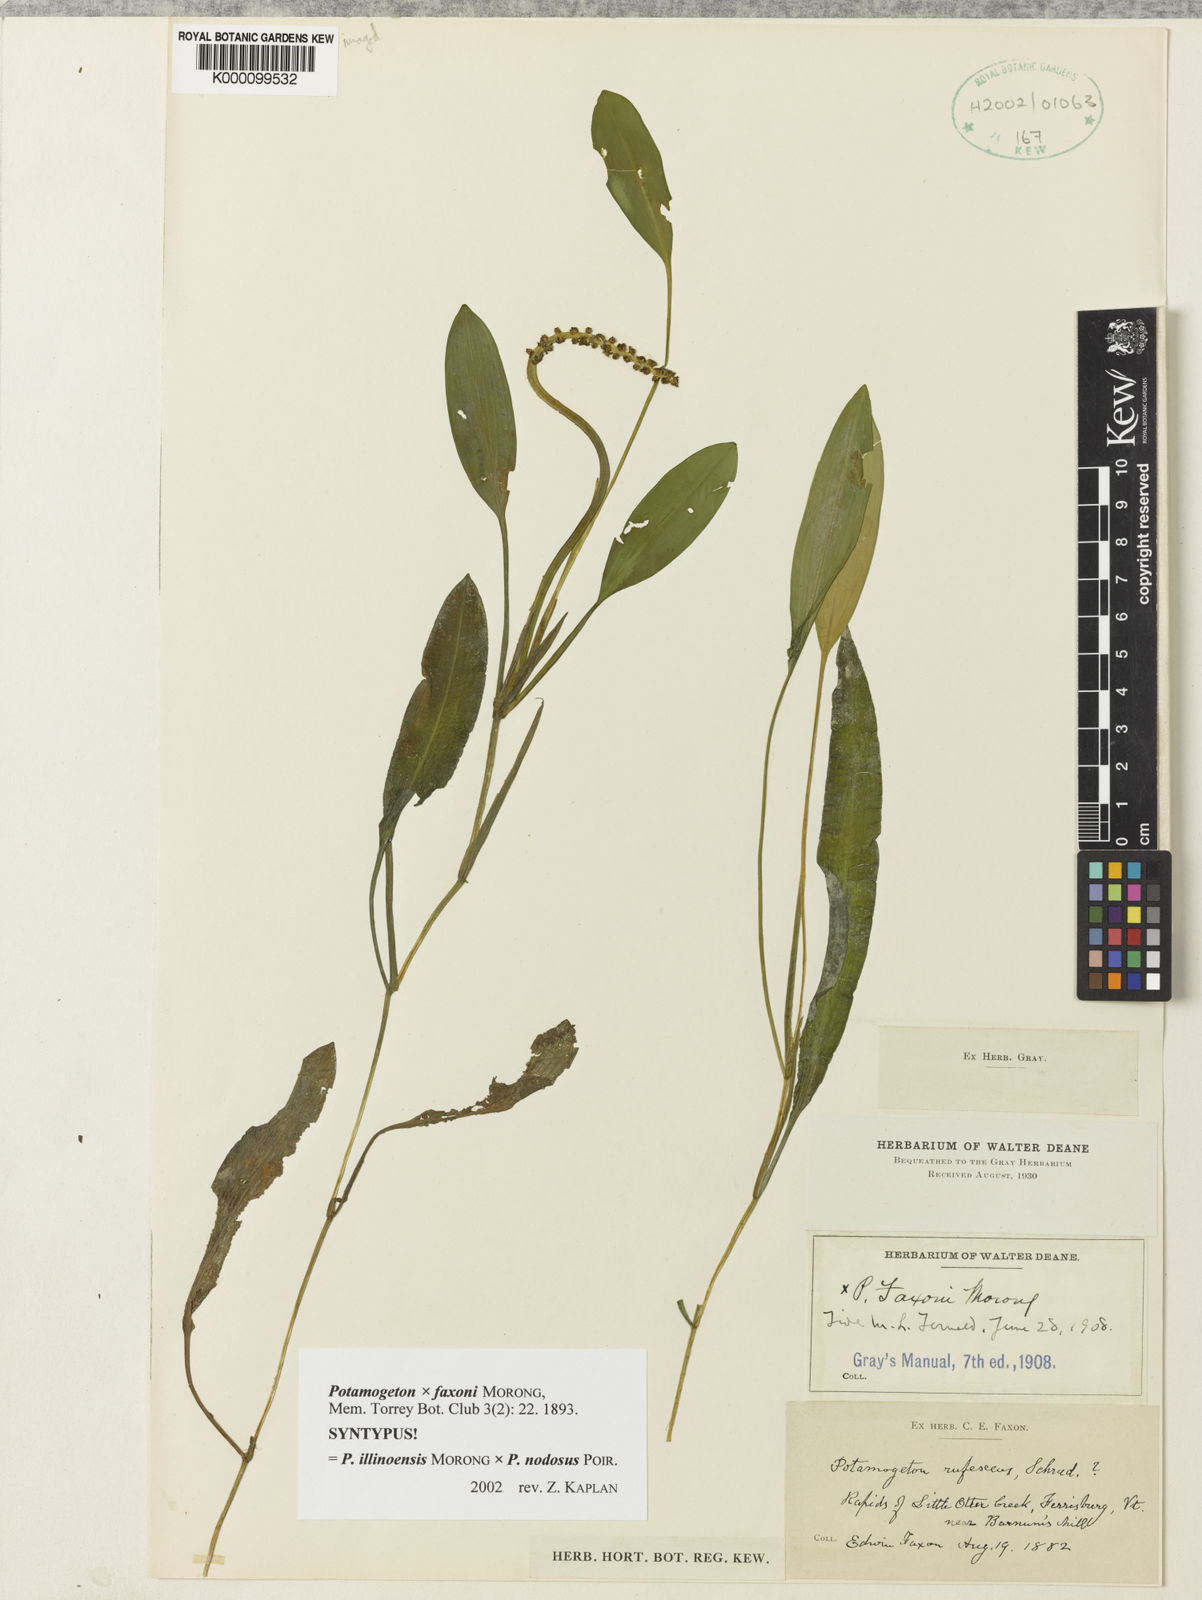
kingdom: Plantae
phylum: Tracheophyta
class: Liliopsida
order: Alismatales
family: Potamogetonaceae
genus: Potamogeton
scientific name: Potamogeton faxonii
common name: Faxon's pondweed
